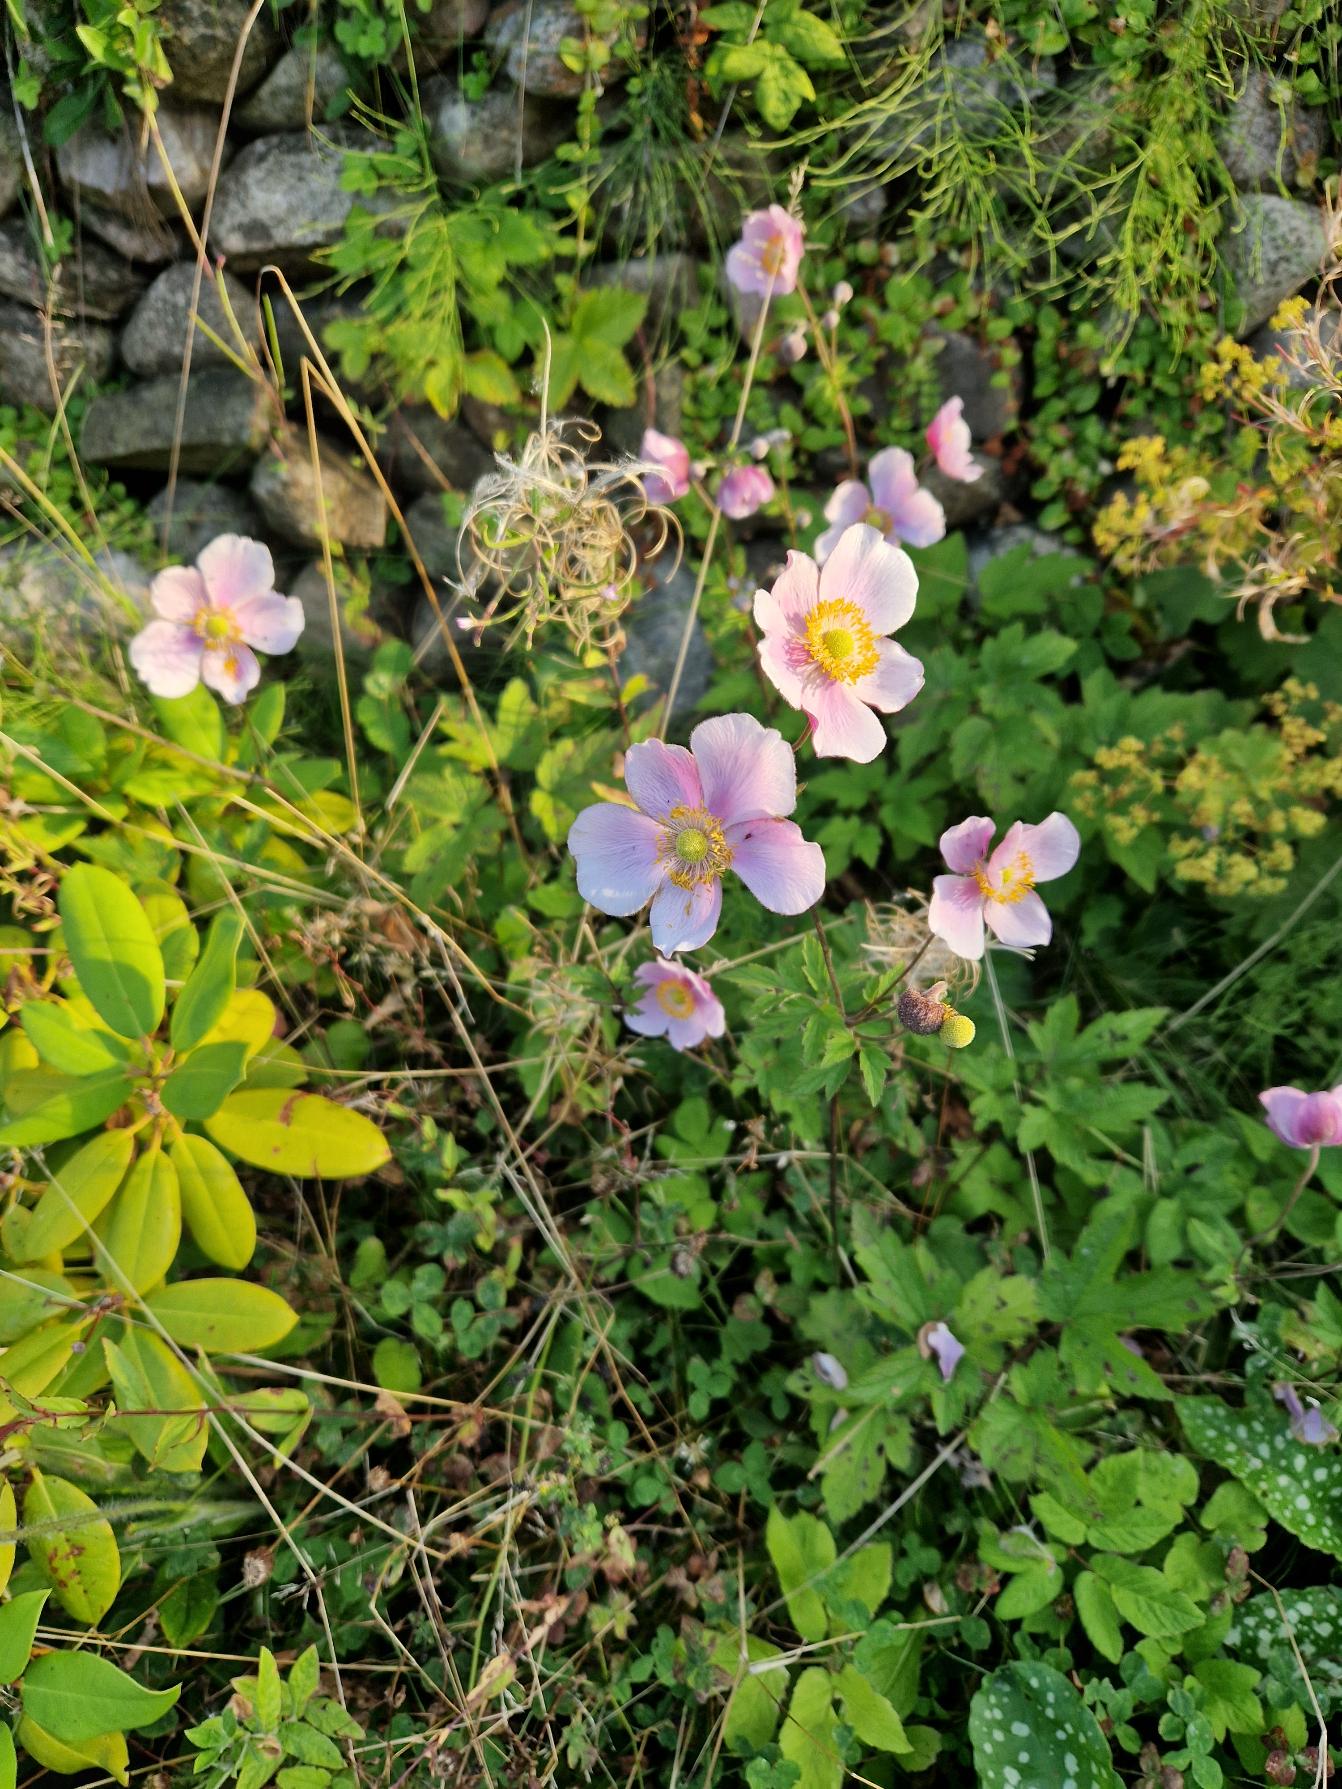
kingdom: Plantae
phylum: Tracheophyta
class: Magnoliopsida
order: Ranunculales
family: Ranunculaceae
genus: Eriocapitella
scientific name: Eriocapitella hupehensis
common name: Høst-anemone
